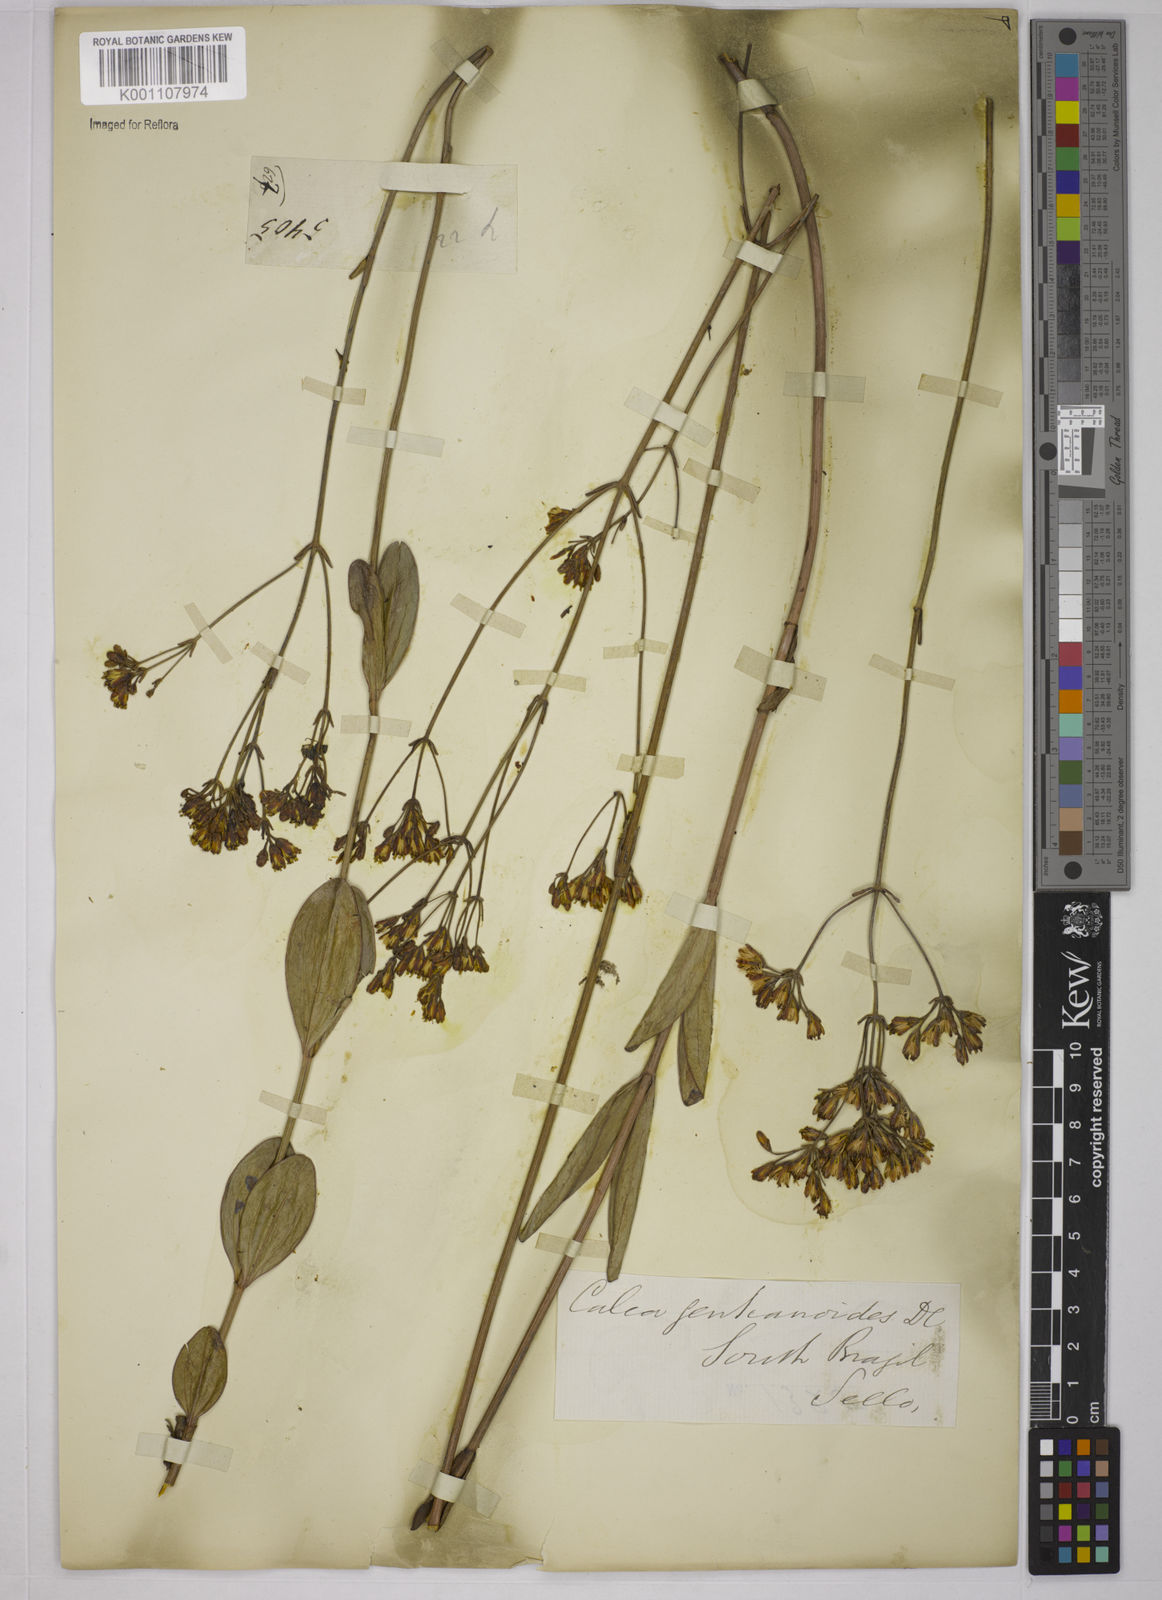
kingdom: Plantae
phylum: Tracheophyta
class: Magnoliopsida
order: Asterales
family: Asteraceae
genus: Calea
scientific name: Calea gentianoides
